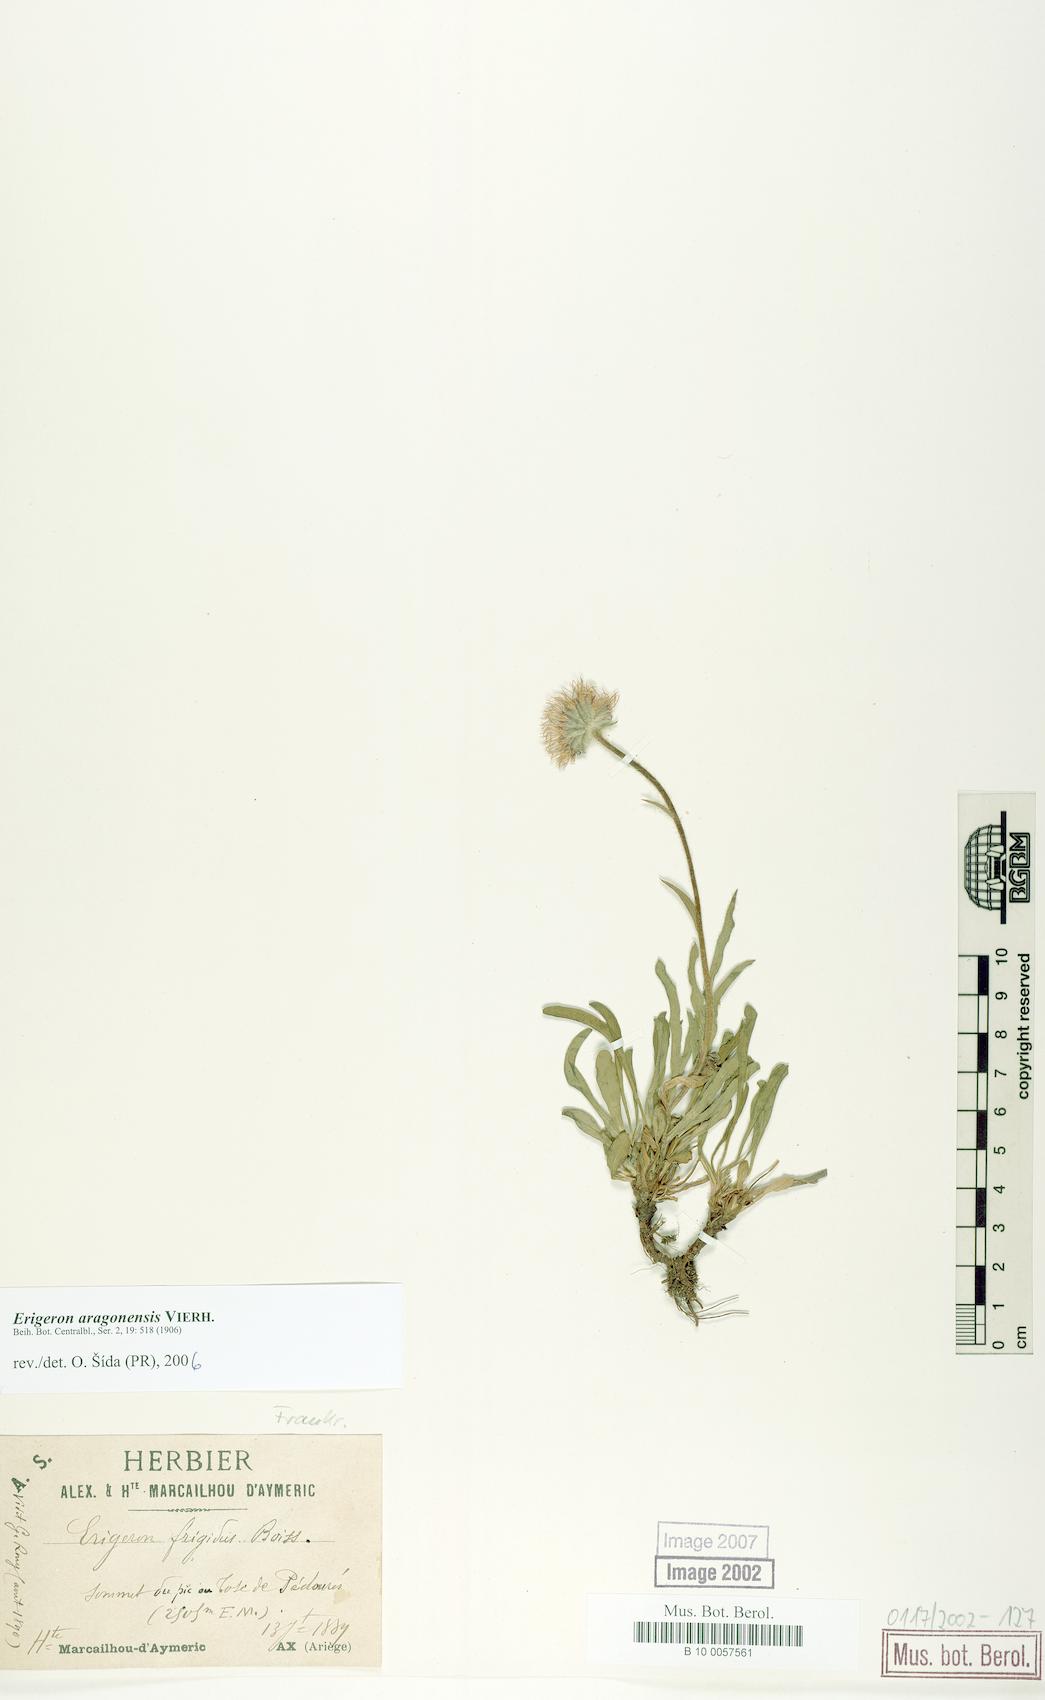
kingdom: Plantae
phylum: Tracheophyta
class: Magnoliopsida
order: Asterales
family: Asteraceae
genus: Erigeron
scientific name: Erigeron aragonensis
